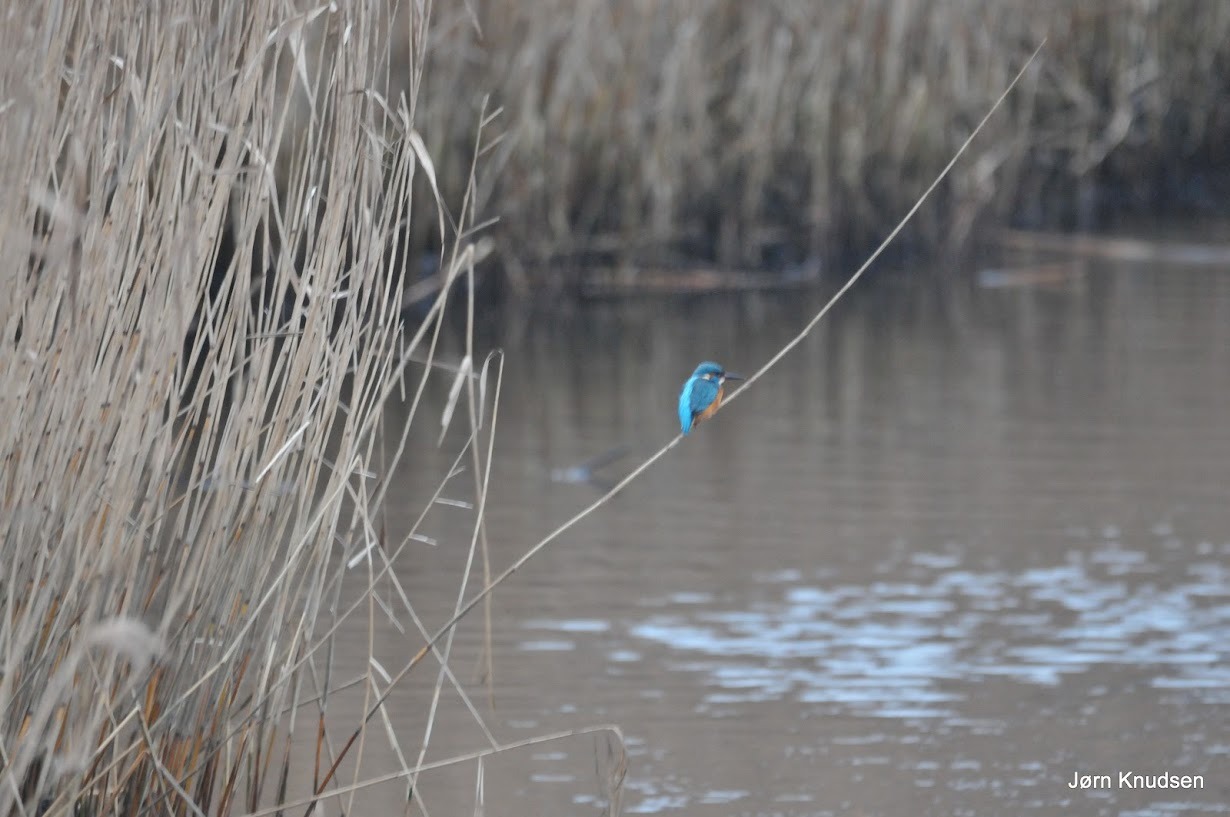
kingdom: Animalia
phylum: Chordata
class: Aves
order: Coraciiformes
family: Alcedinidae
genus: Alcedo
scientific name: Alcedo atthis
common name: Isfugl
